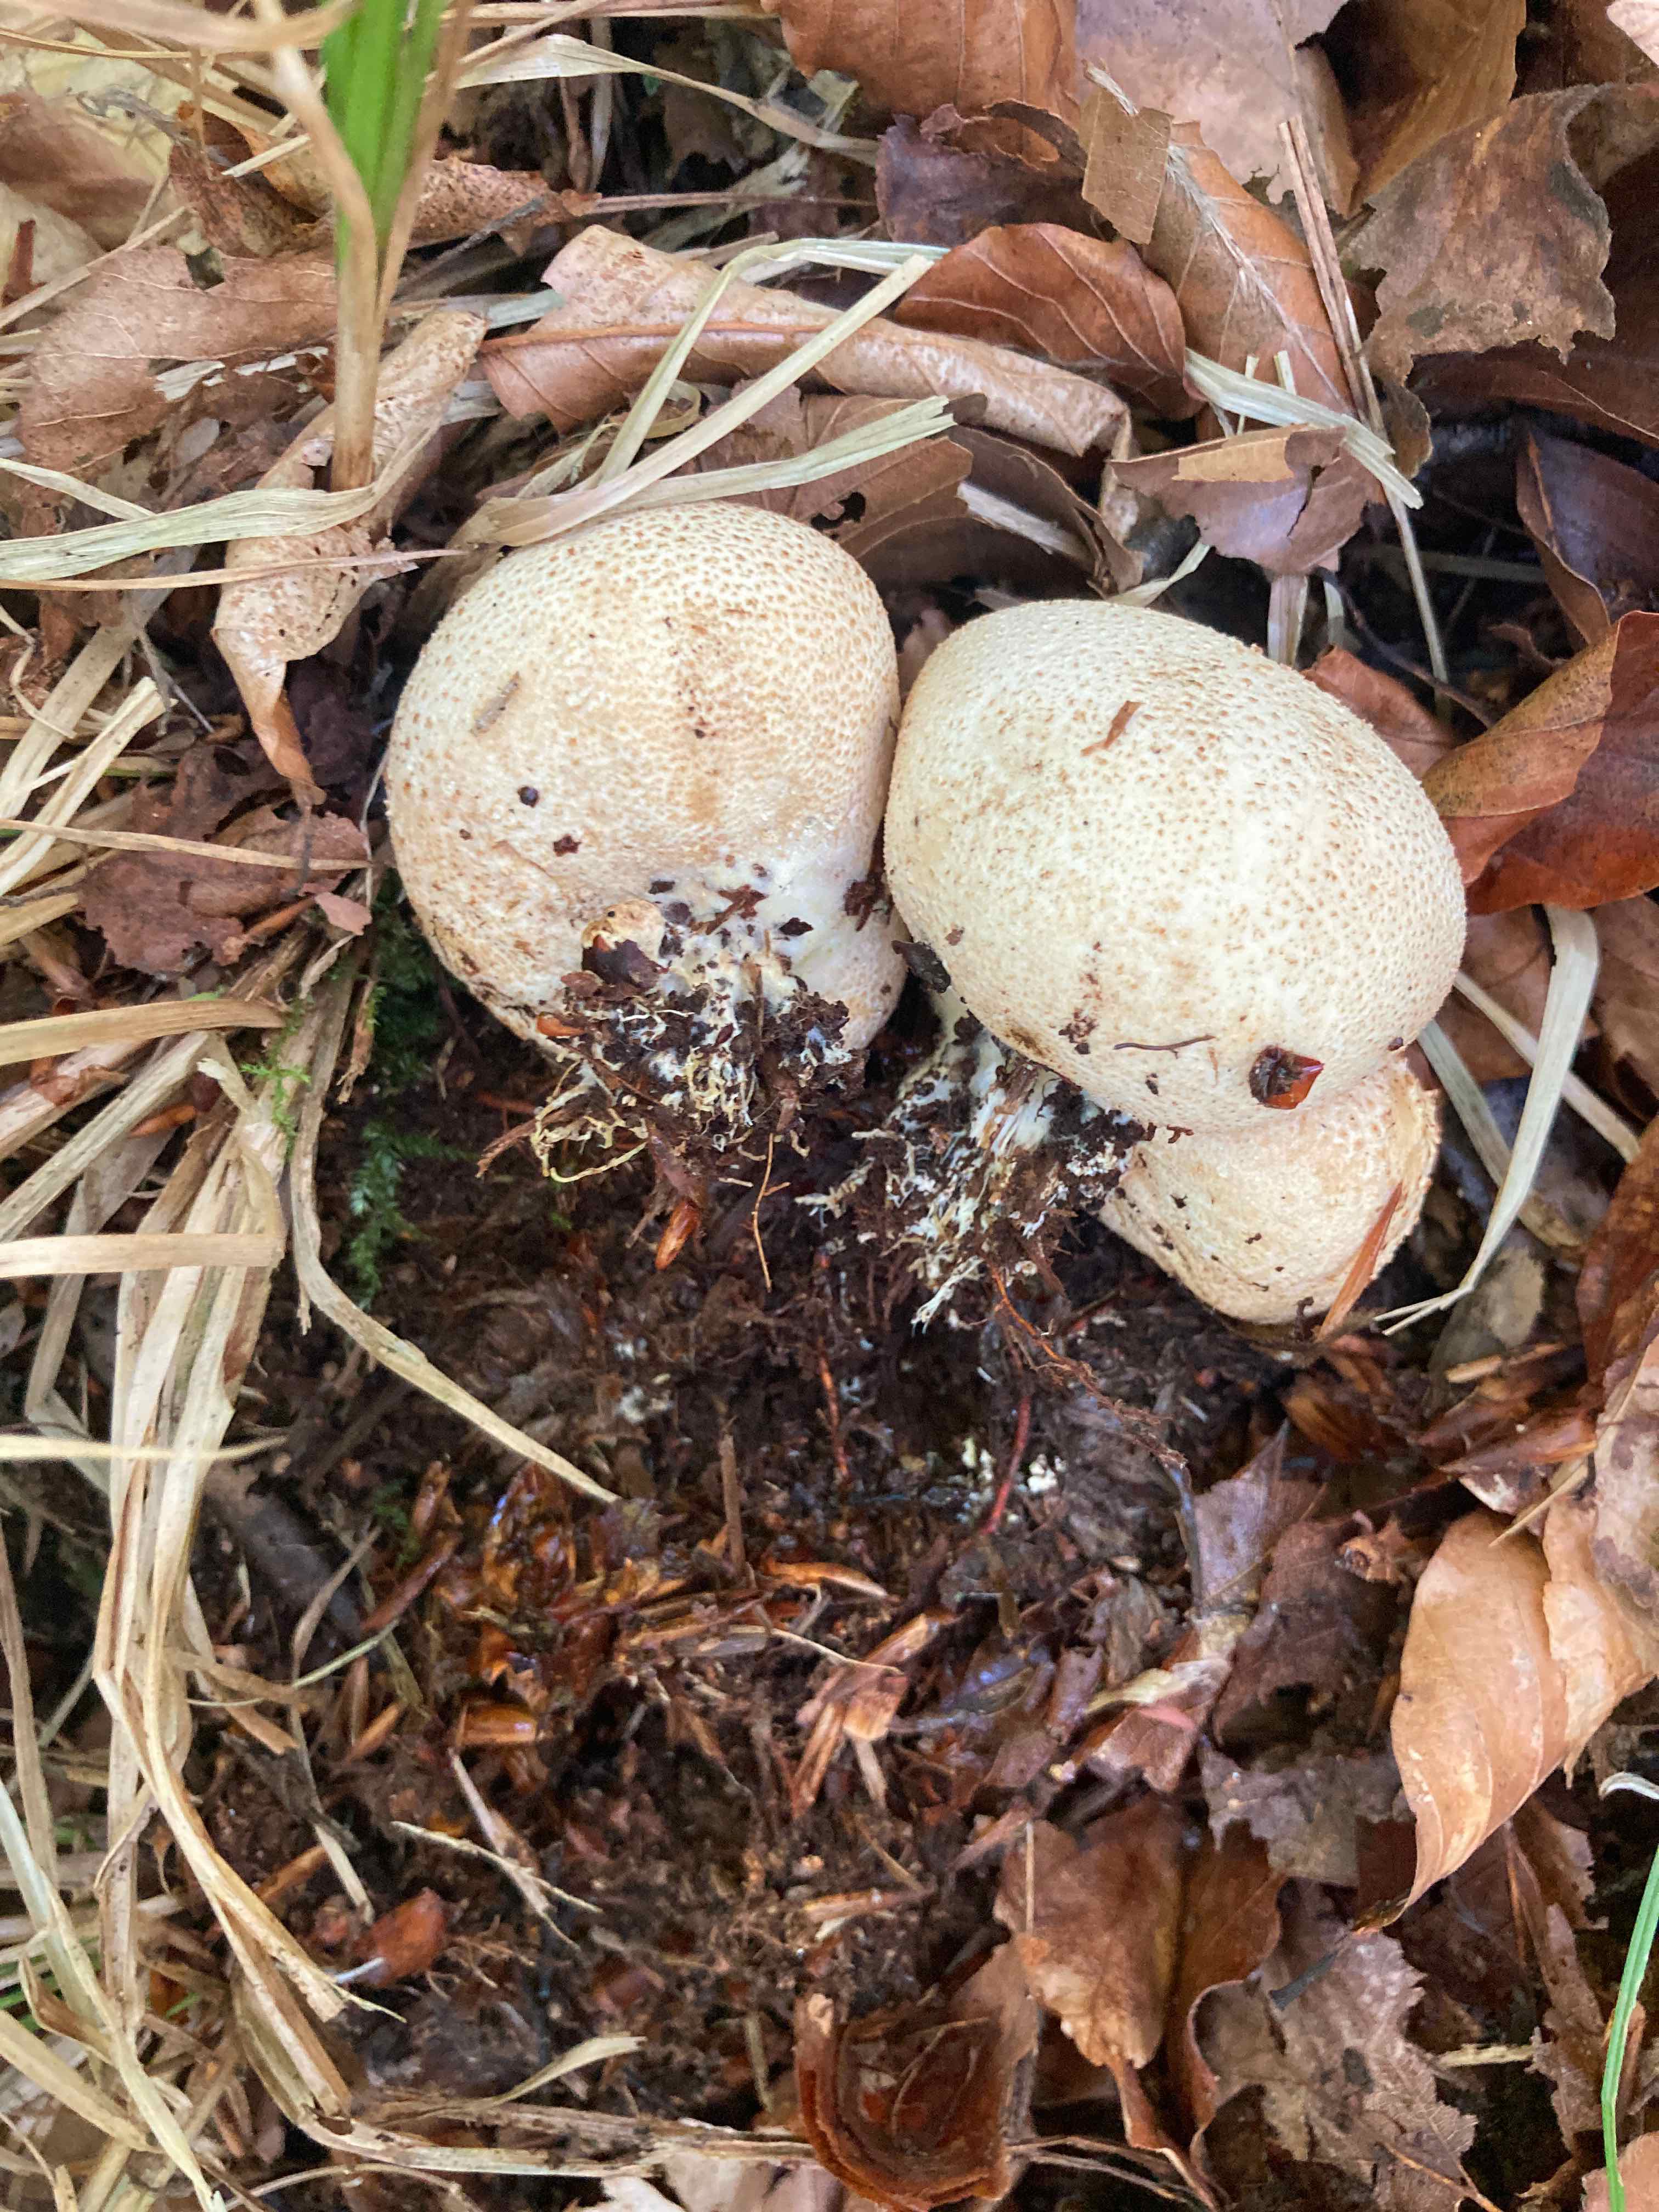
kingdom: Fungi
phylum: Basidiomycota
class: Agaricomycetes
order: Boletales
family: Sclerodermataceae
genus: Scleroderma
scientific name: Scleroderma citrinum
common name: almindelig bruskbold
